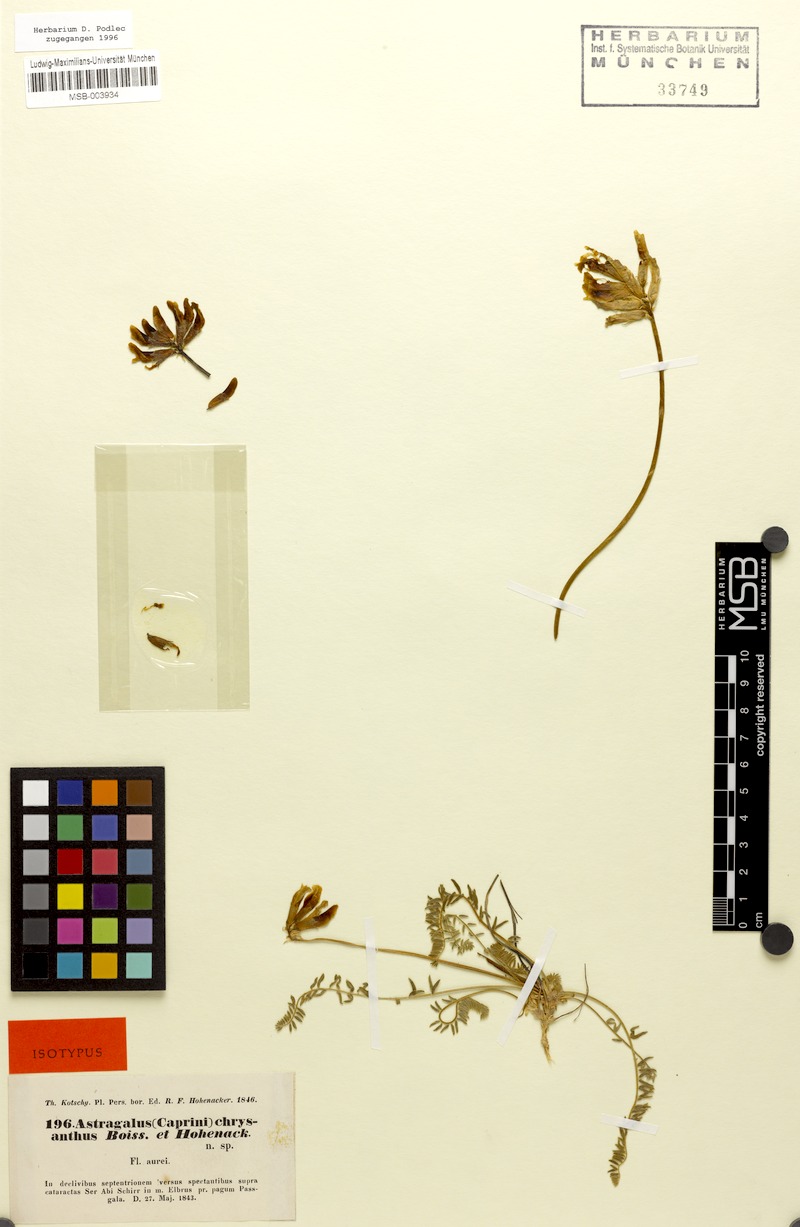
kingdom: Plantae
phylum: Tracheophyta
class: Magnoliopsida
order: Fabales
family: Fabaceae
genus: Astragalus
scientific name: Astragalus chrysanthus
